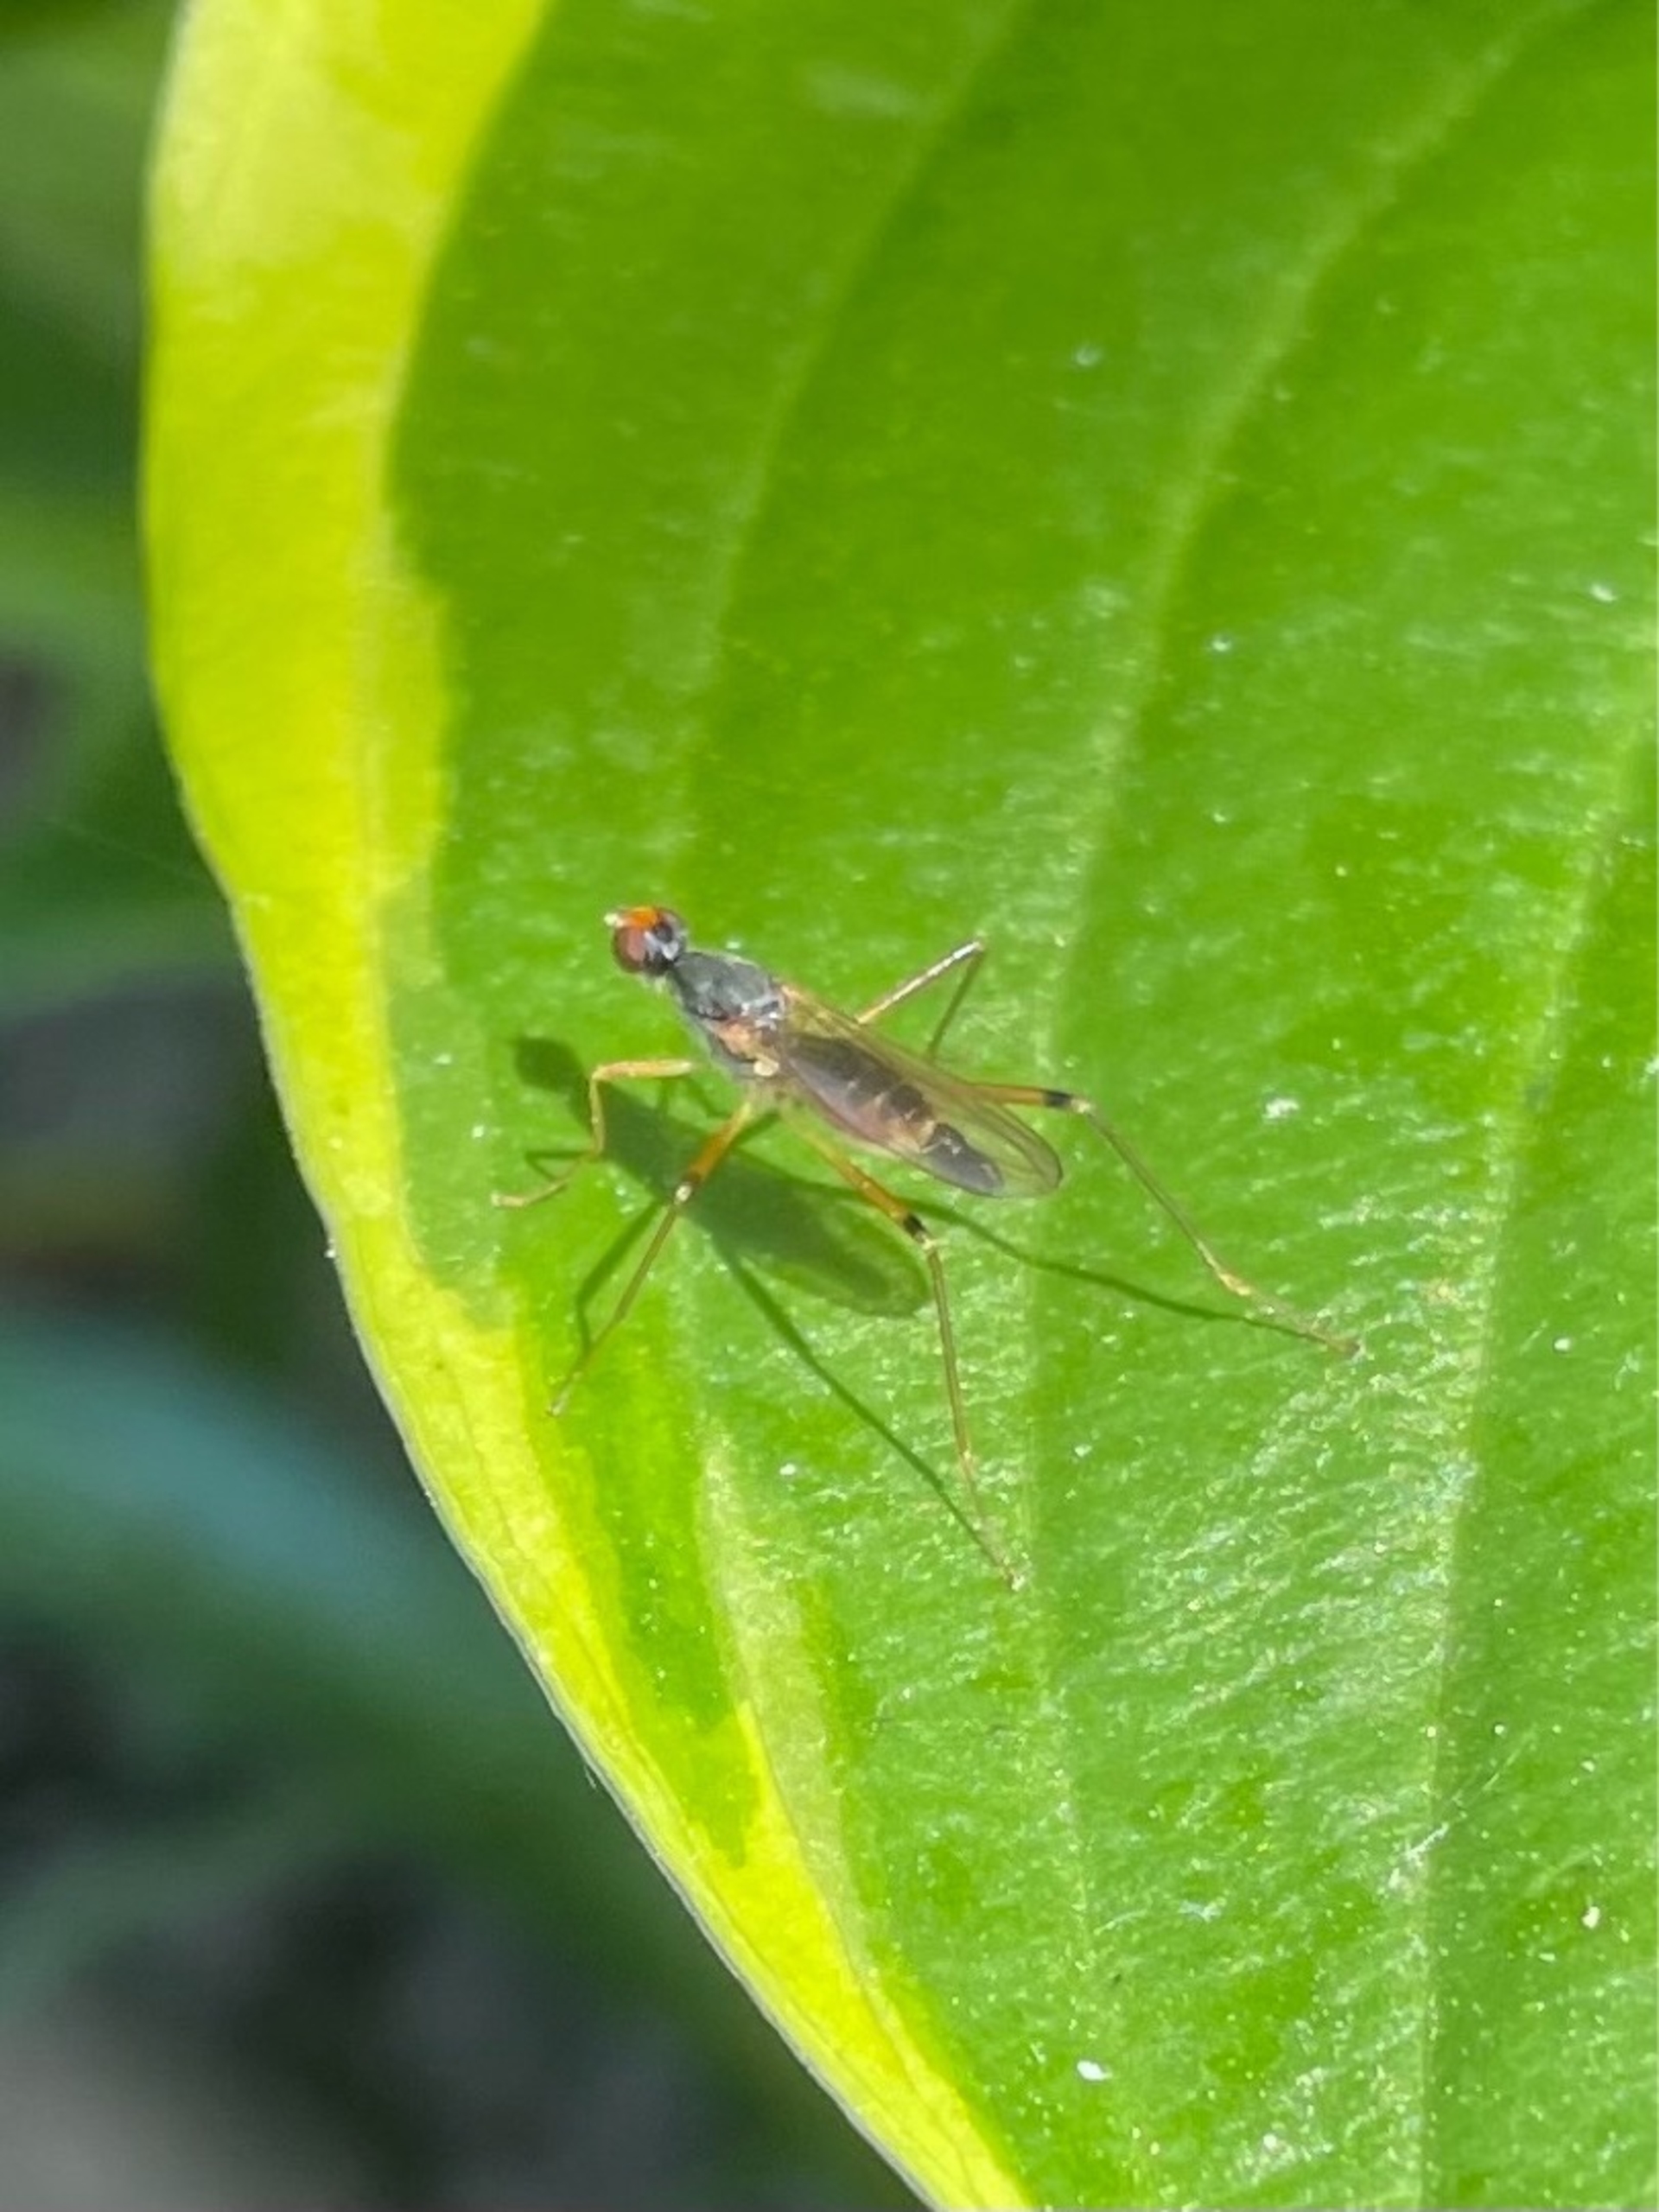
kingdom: Animalia
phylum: Arthropoda
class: Insecta
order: Diptera
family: Micropezidae
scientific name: Micropezidae
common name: Stankelbenfluer
